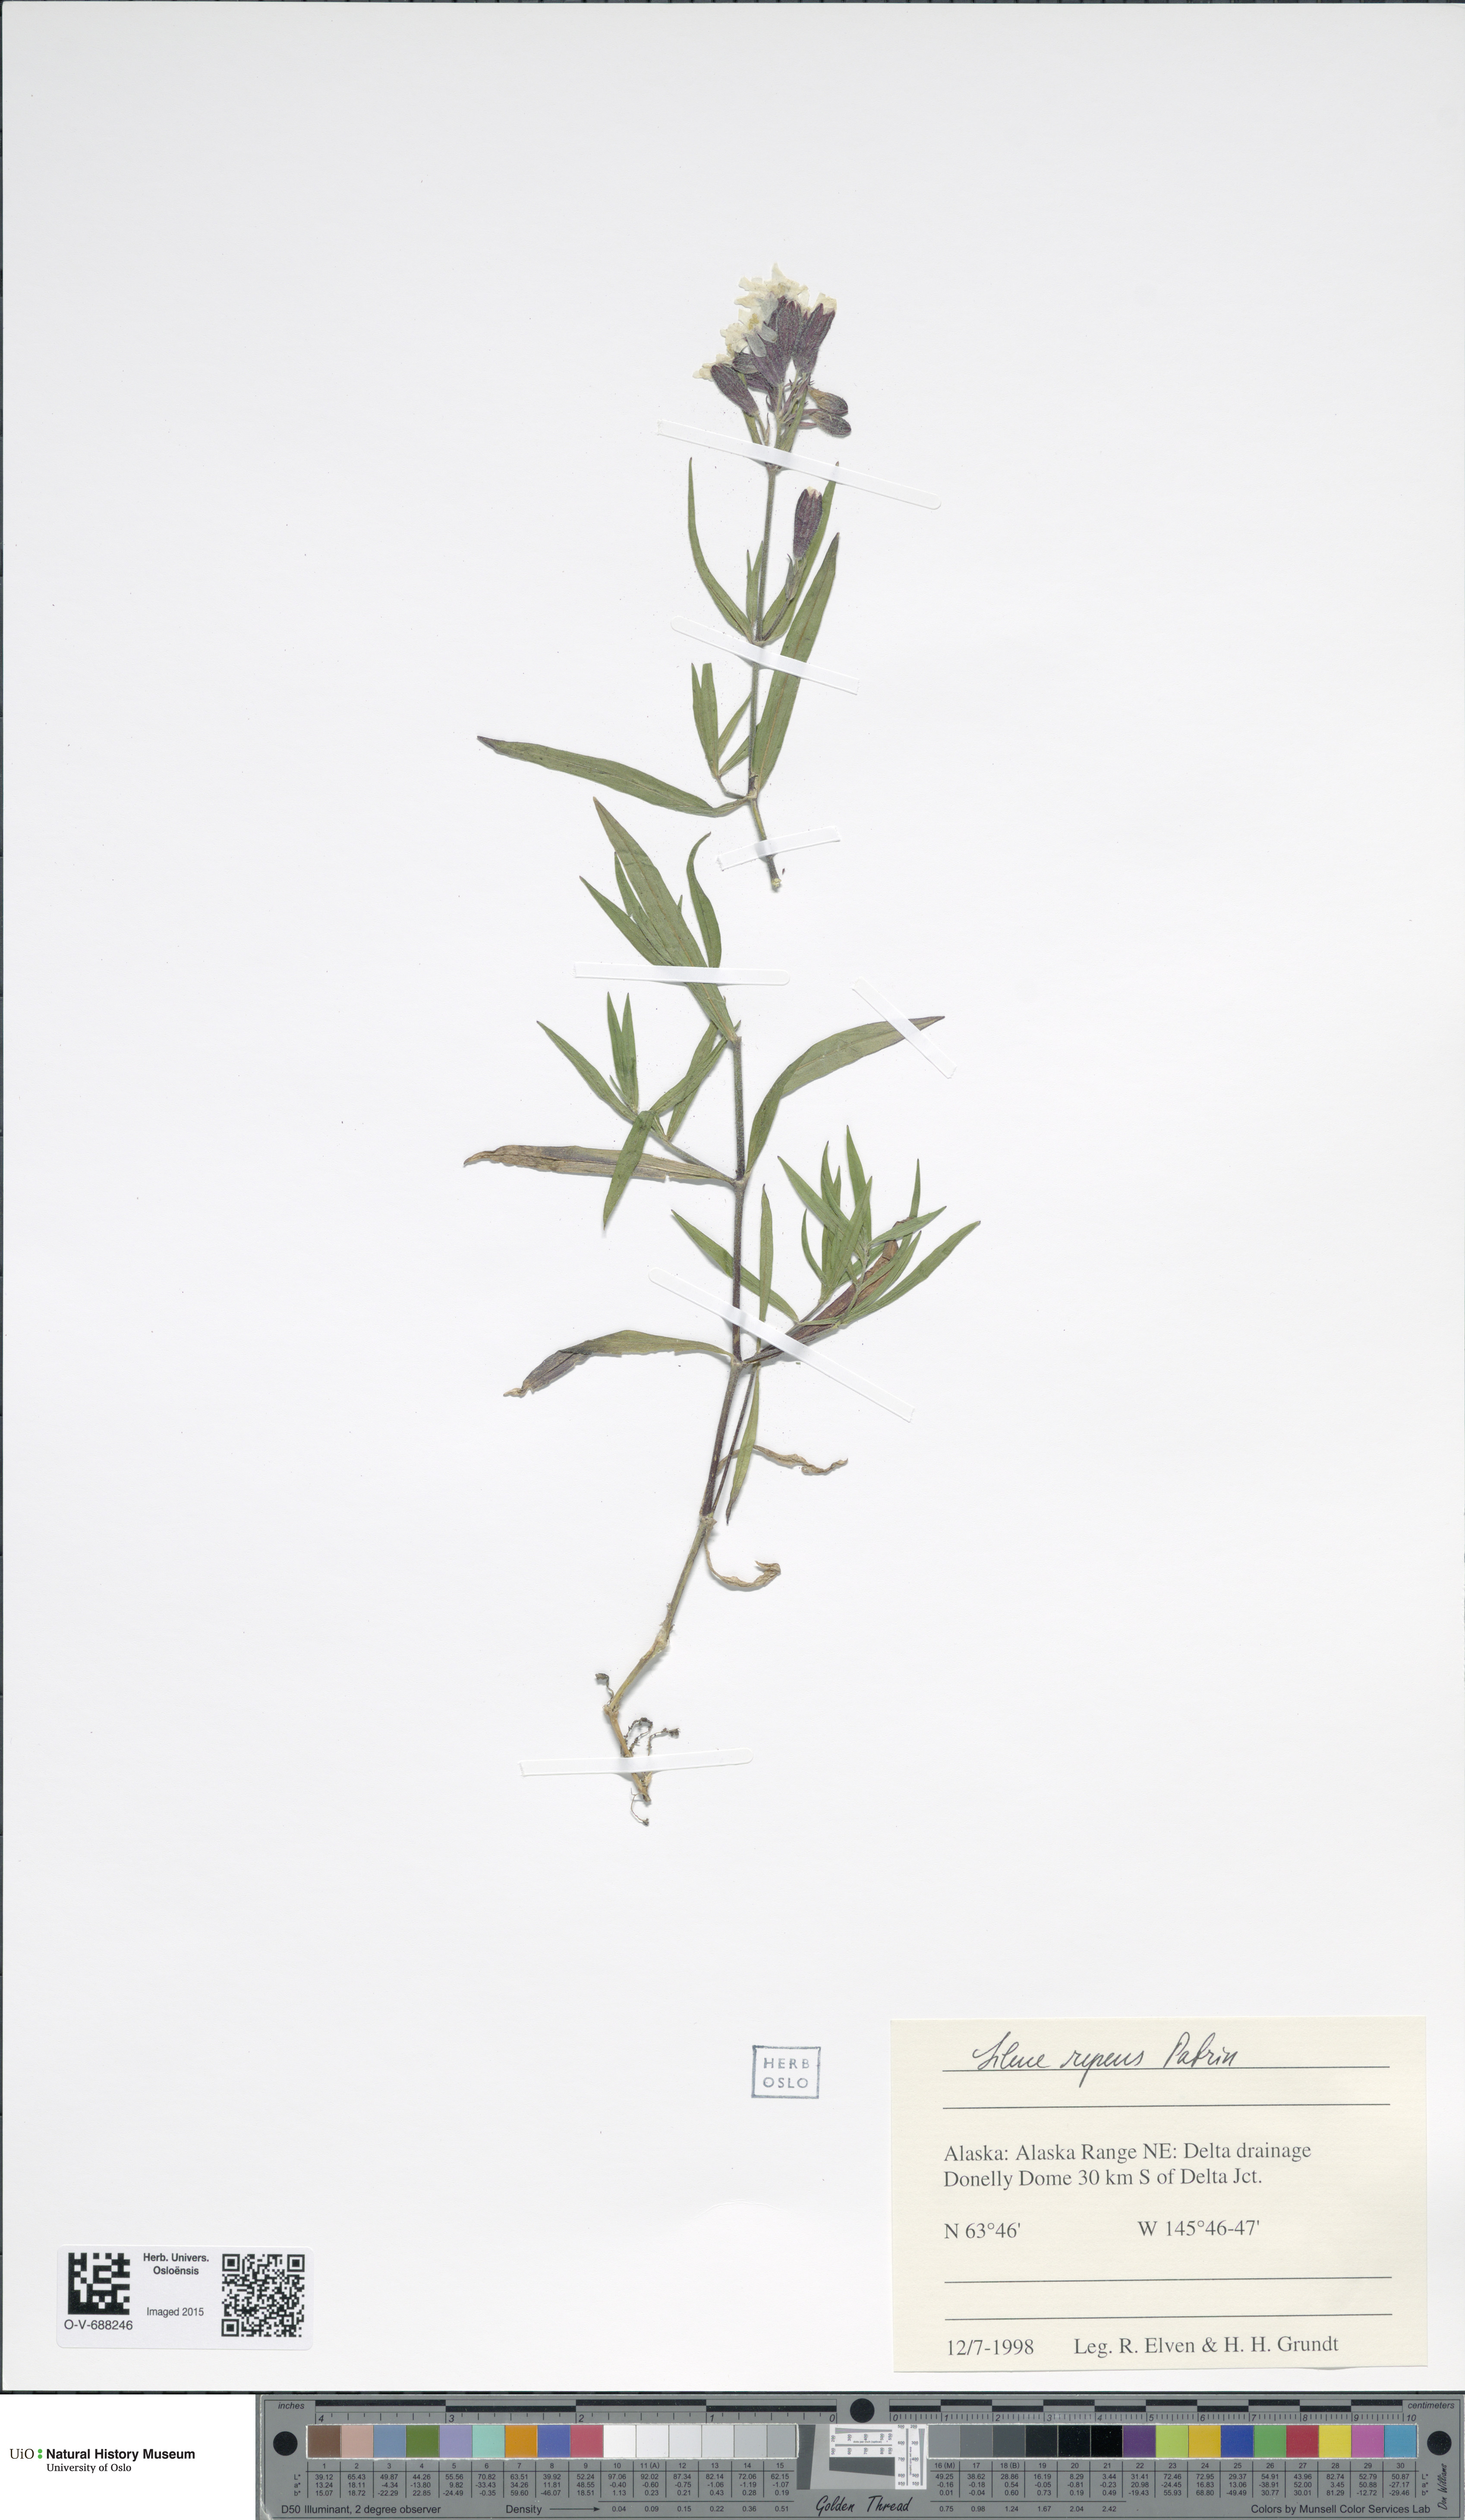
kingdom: Plantae
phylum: Tracheophyta
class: Magnoliopsida
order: Caryophyllales
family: Caryophyllaceae
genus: Silene
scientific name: Silene repens
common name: Pink campion
